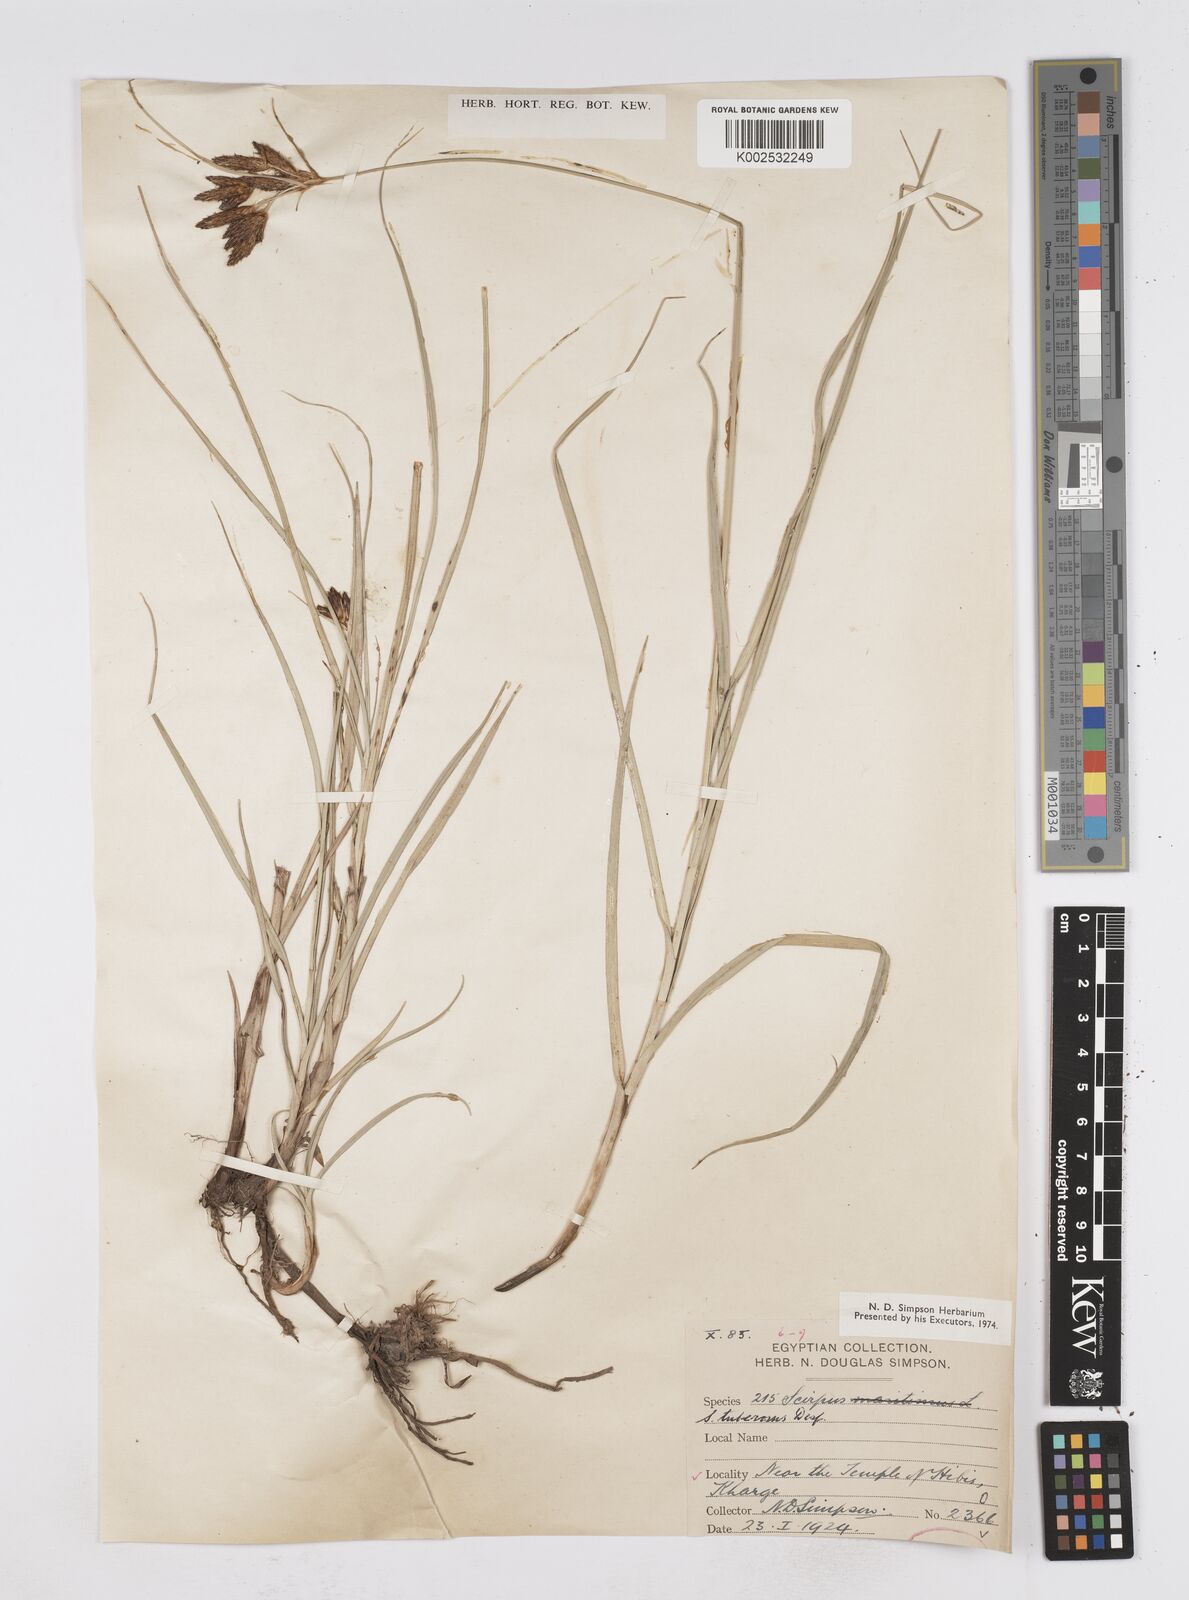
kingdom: Plantae
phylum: Tracheophyta
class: Liliopsida
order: Poales
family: Cyperaceae
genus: Bolboschoenus
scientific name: Bolboschoenus maritimus
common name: Sea club-rush
